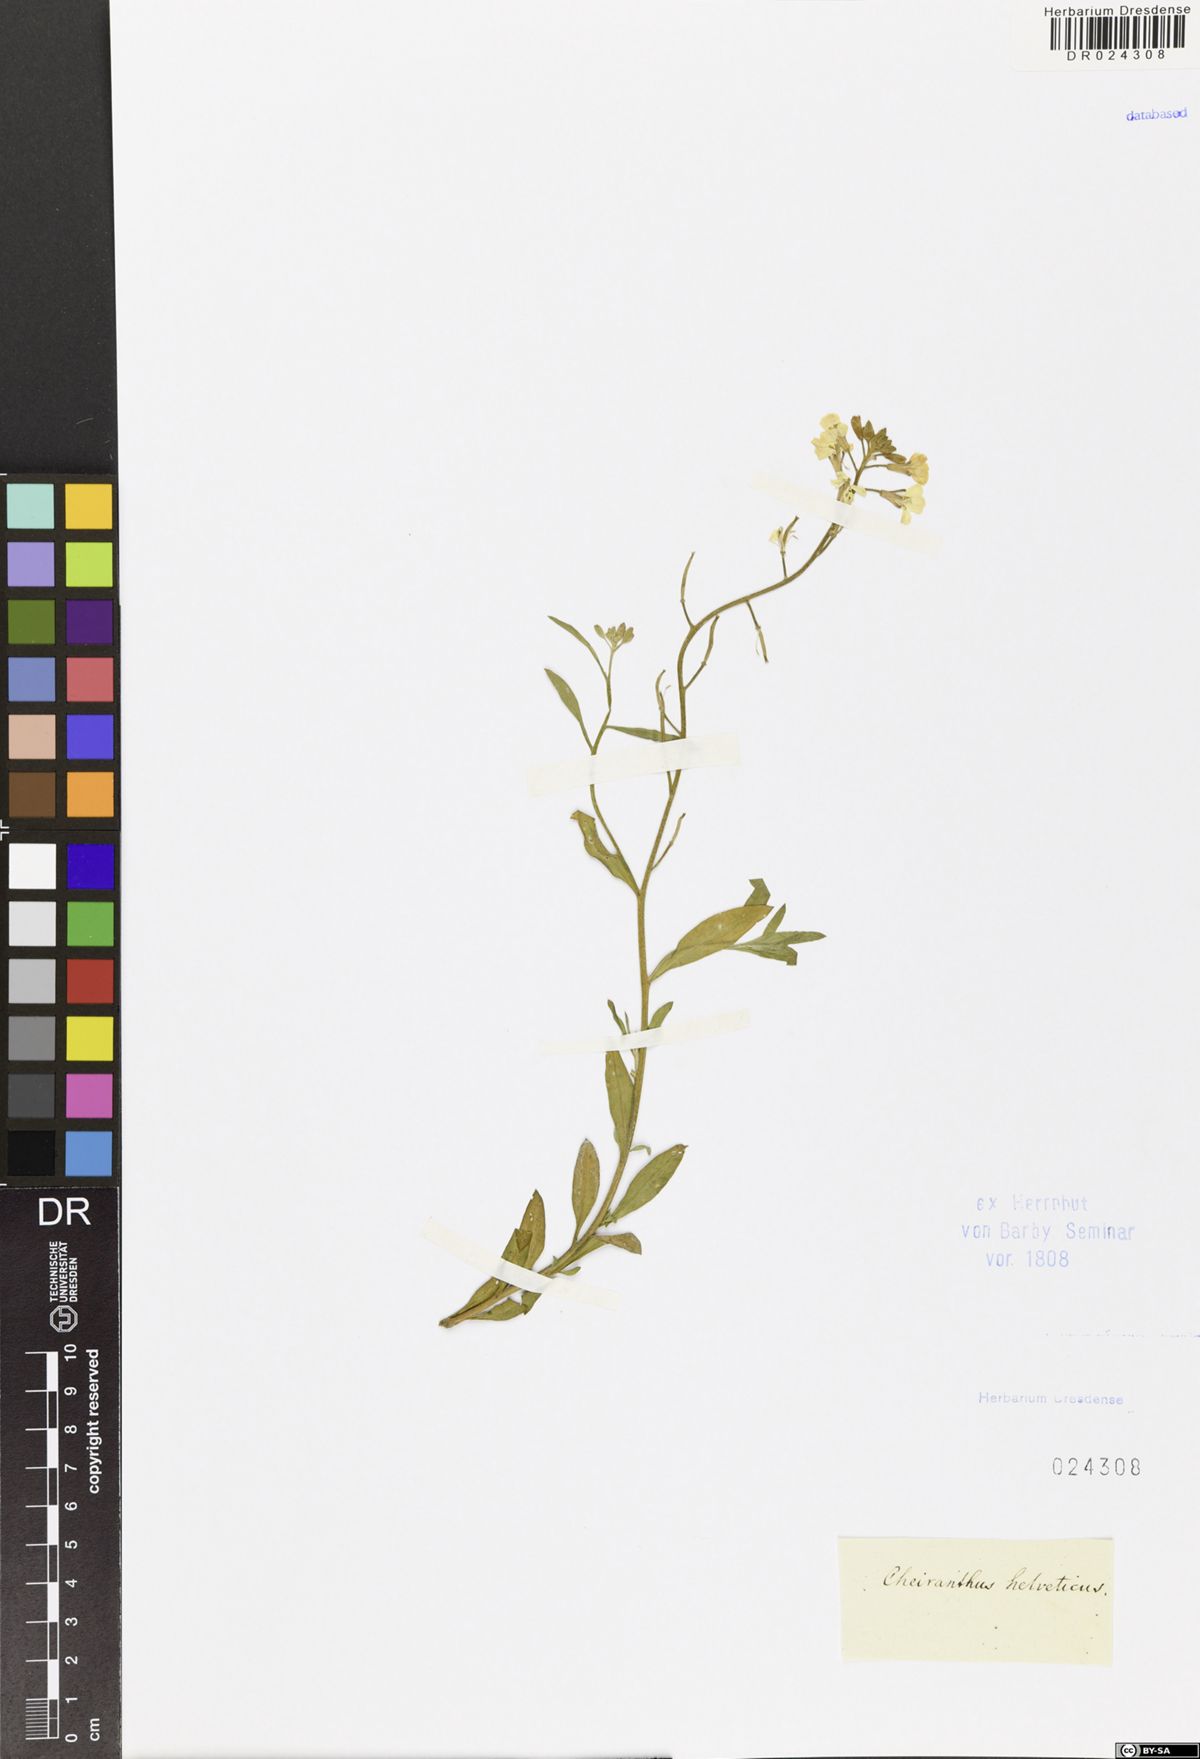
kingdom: Plantae
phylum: Tracheophyta
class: Magnoliopsida
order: Brassicales
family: Brassicaceae
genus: Erysimum
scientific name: Erysimum cheiri
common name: Wallflower
